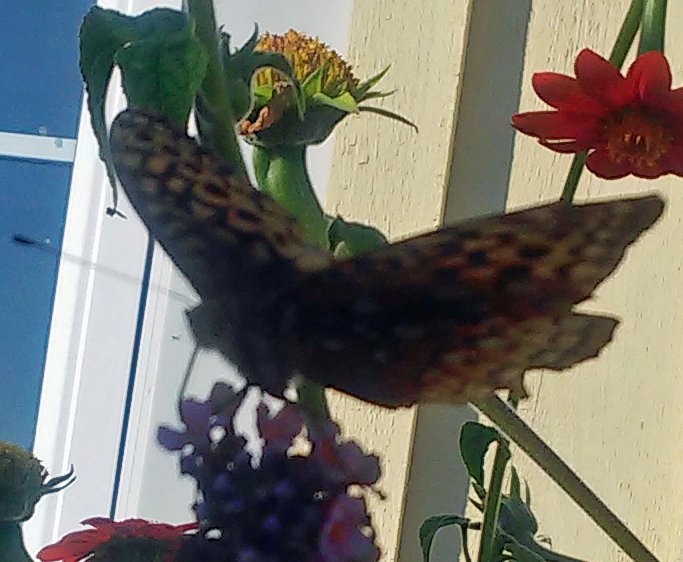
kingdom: Animalia
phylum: Arthropoda
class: Insecta
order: Lepidoptera
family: Nymphalidae
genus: Speyeria
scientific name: Speyeria cybele
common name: Great Spangled Fritillary
